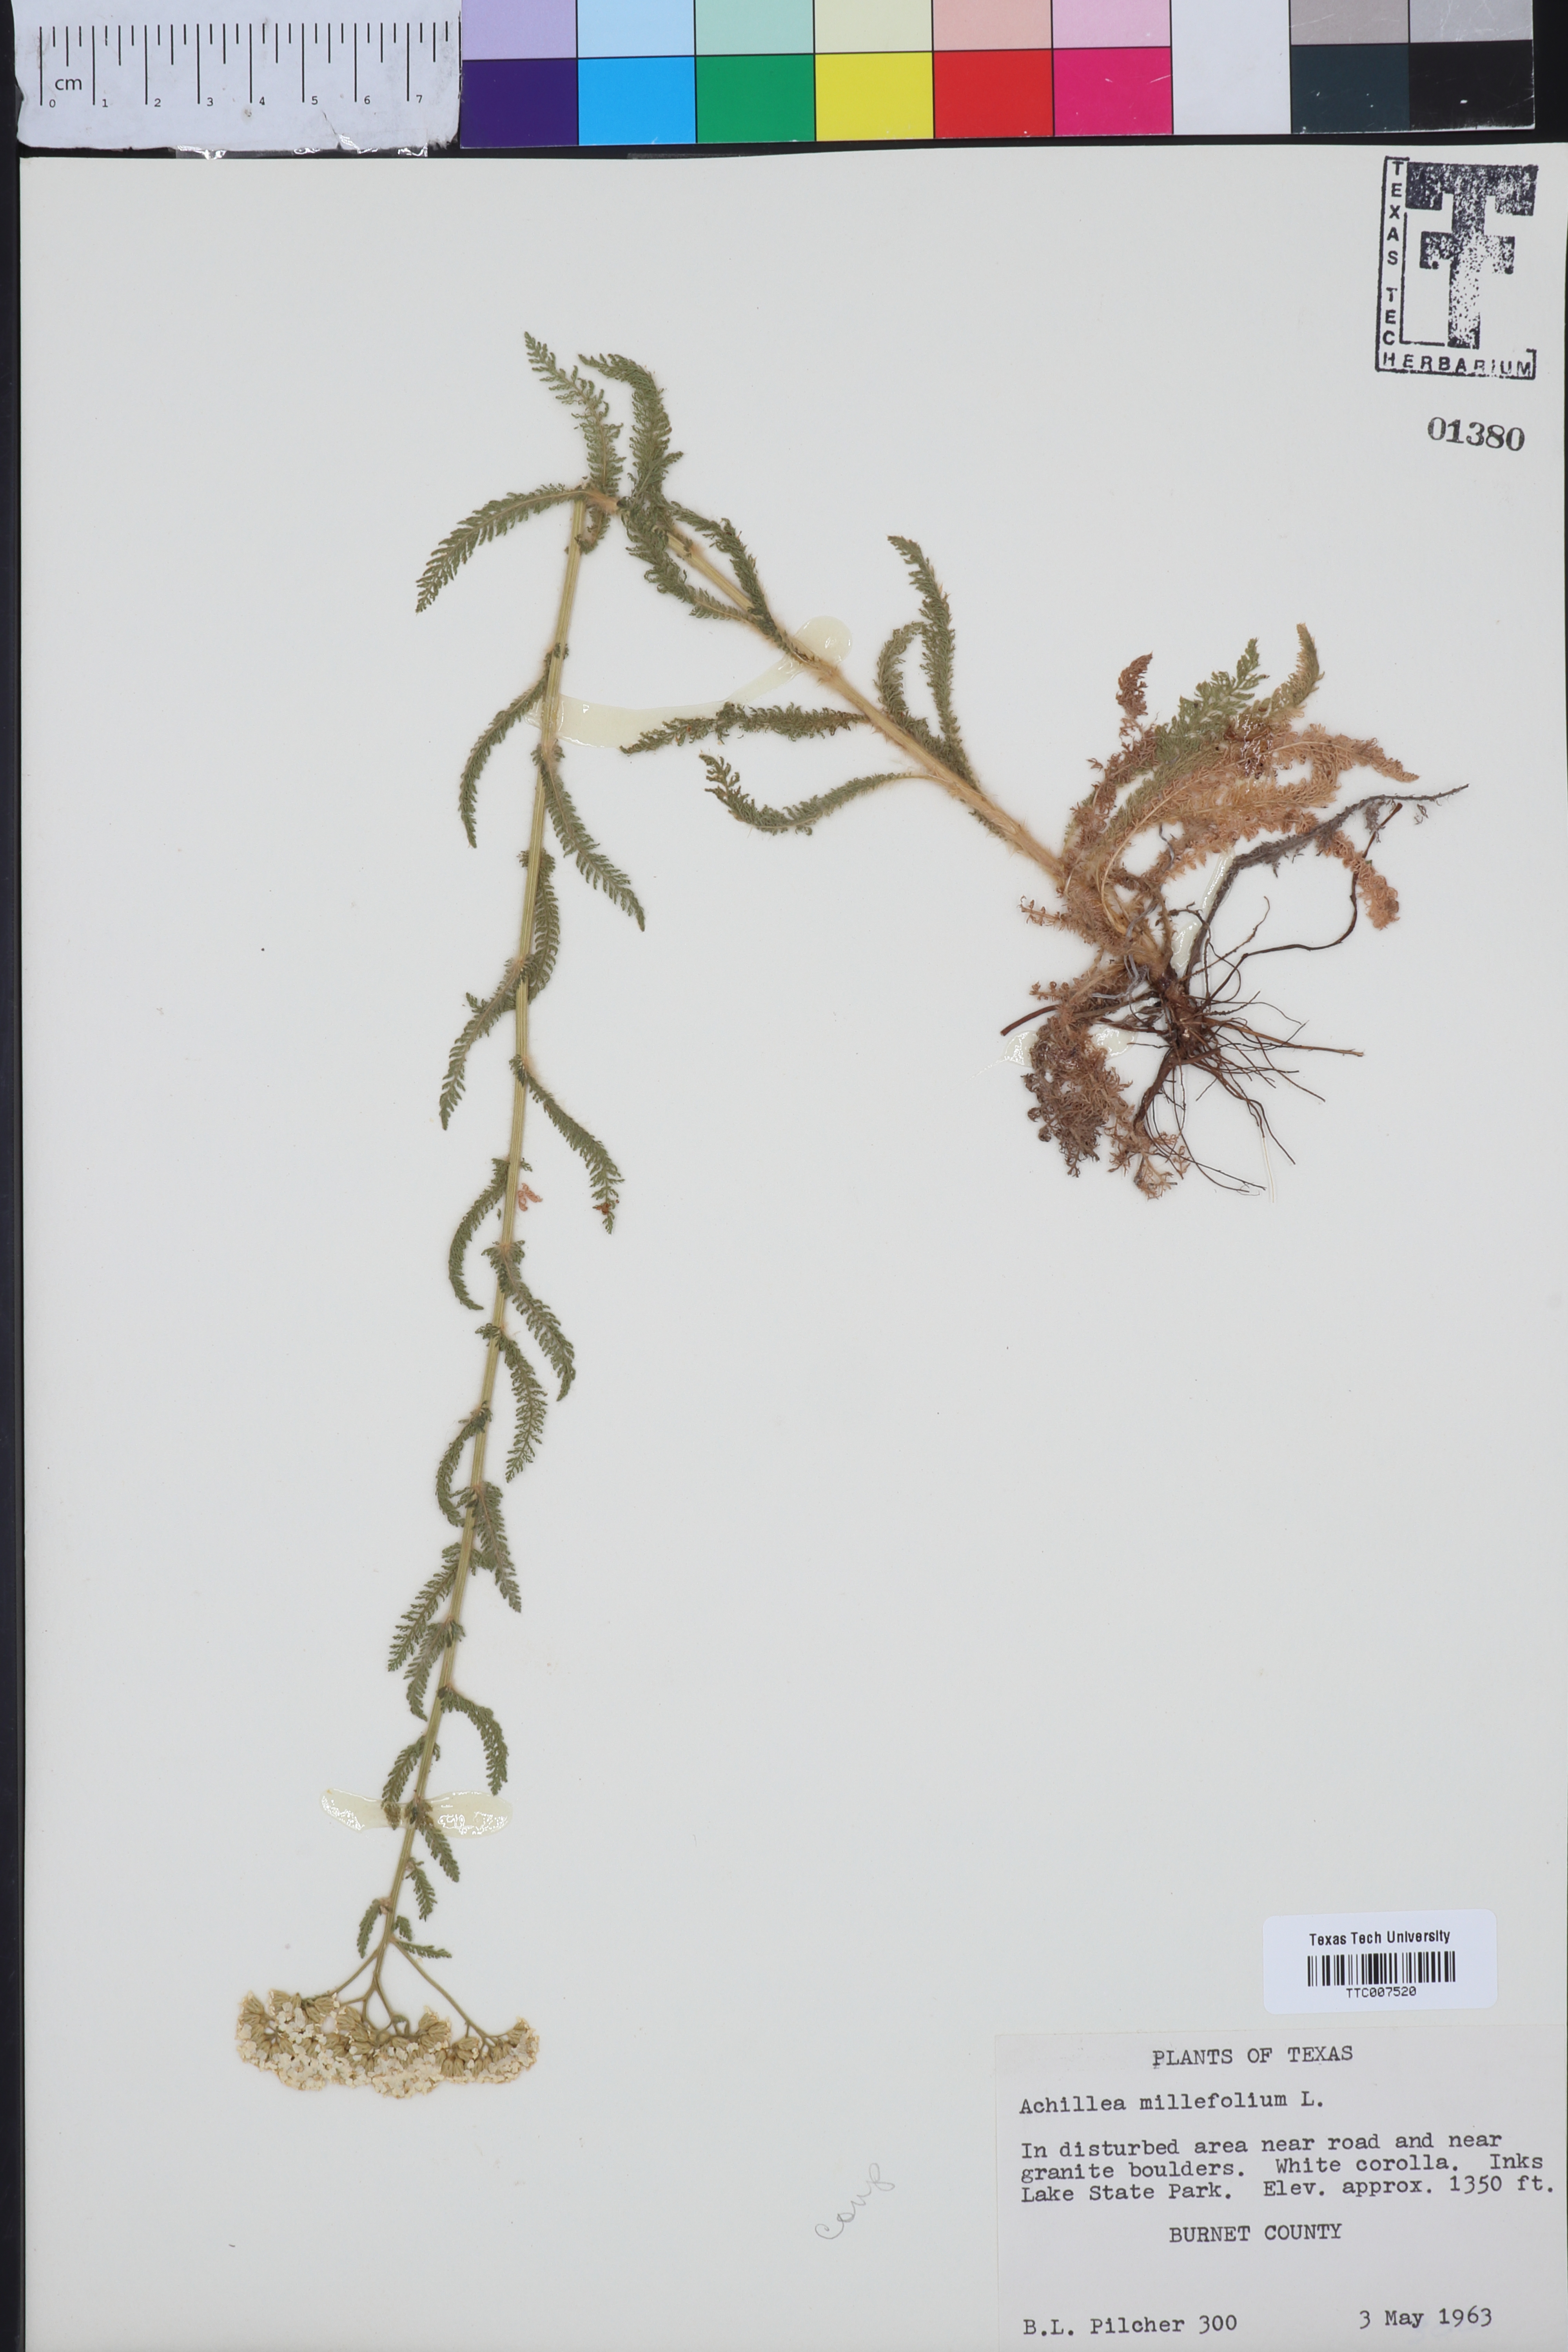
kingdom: Plantae
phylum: Tracheophyta
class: Magnoliopsida
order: Asterales
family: Asteraceae
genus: Achillea
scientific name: Achillea millefolium
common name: Yarrow
